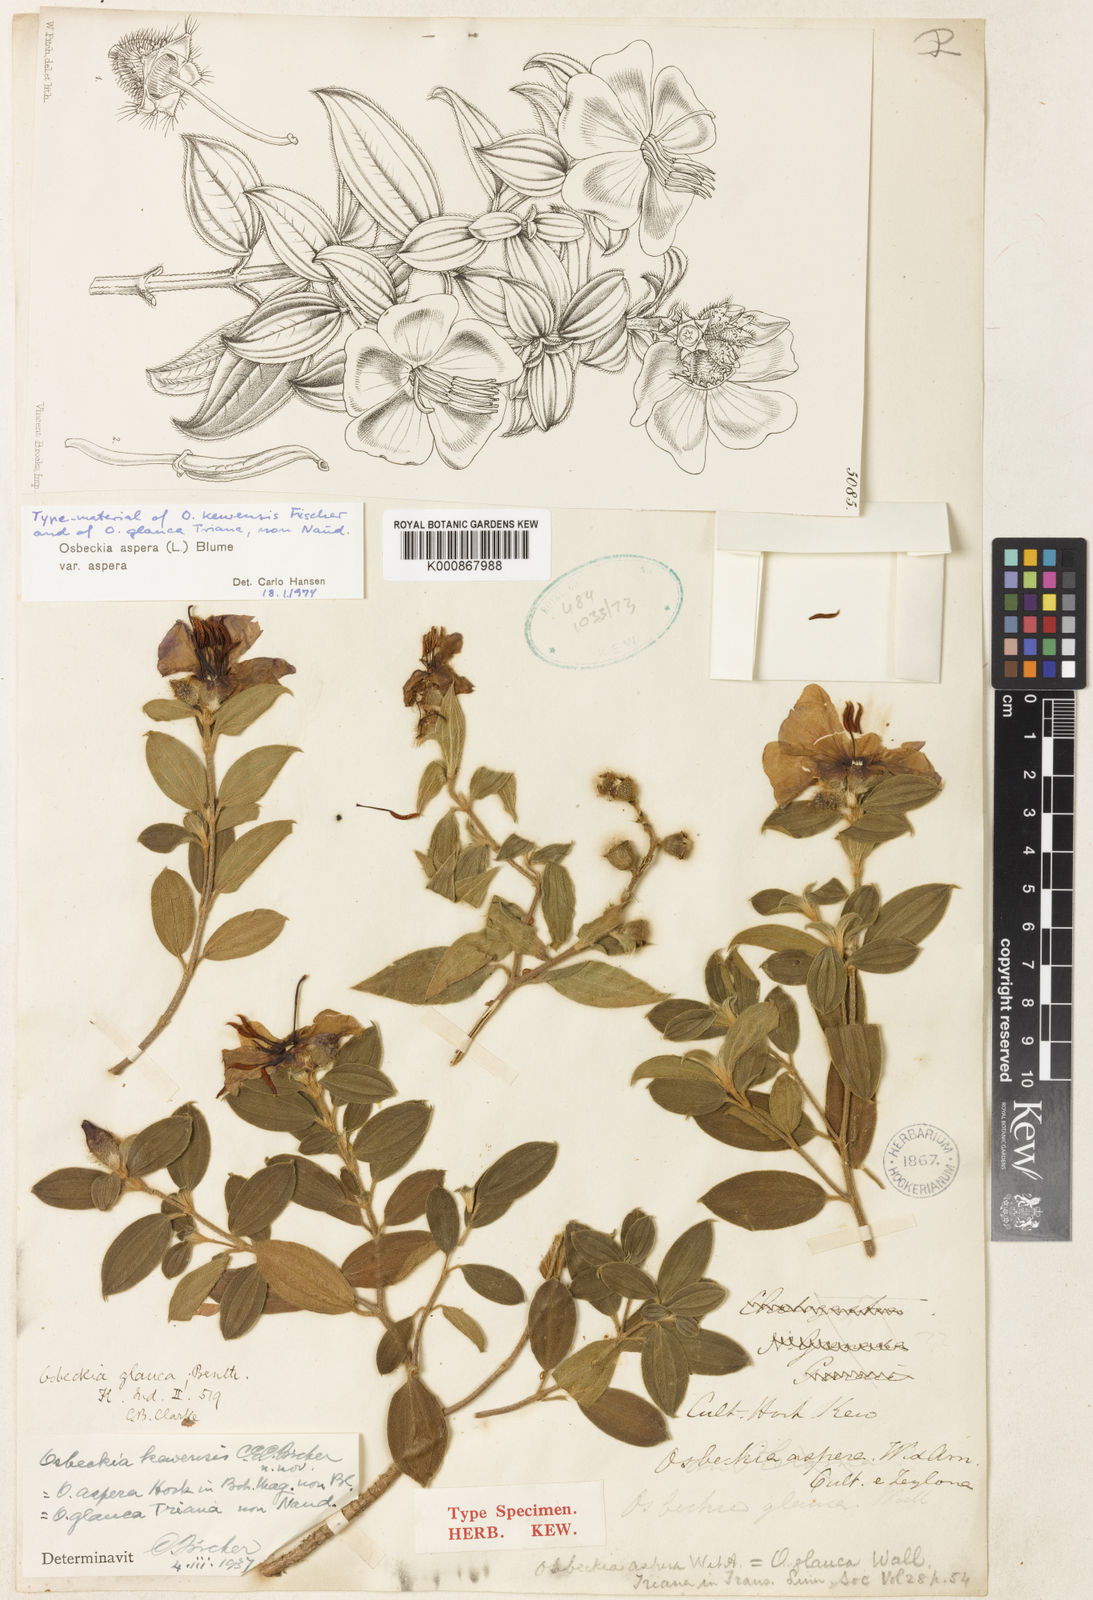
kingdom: Plantae
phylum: Tracheophyta
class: Magnoliopsida
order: Myrtales
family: Melastomataceae
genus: Osbeckia
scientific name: Osbeckia aspera
